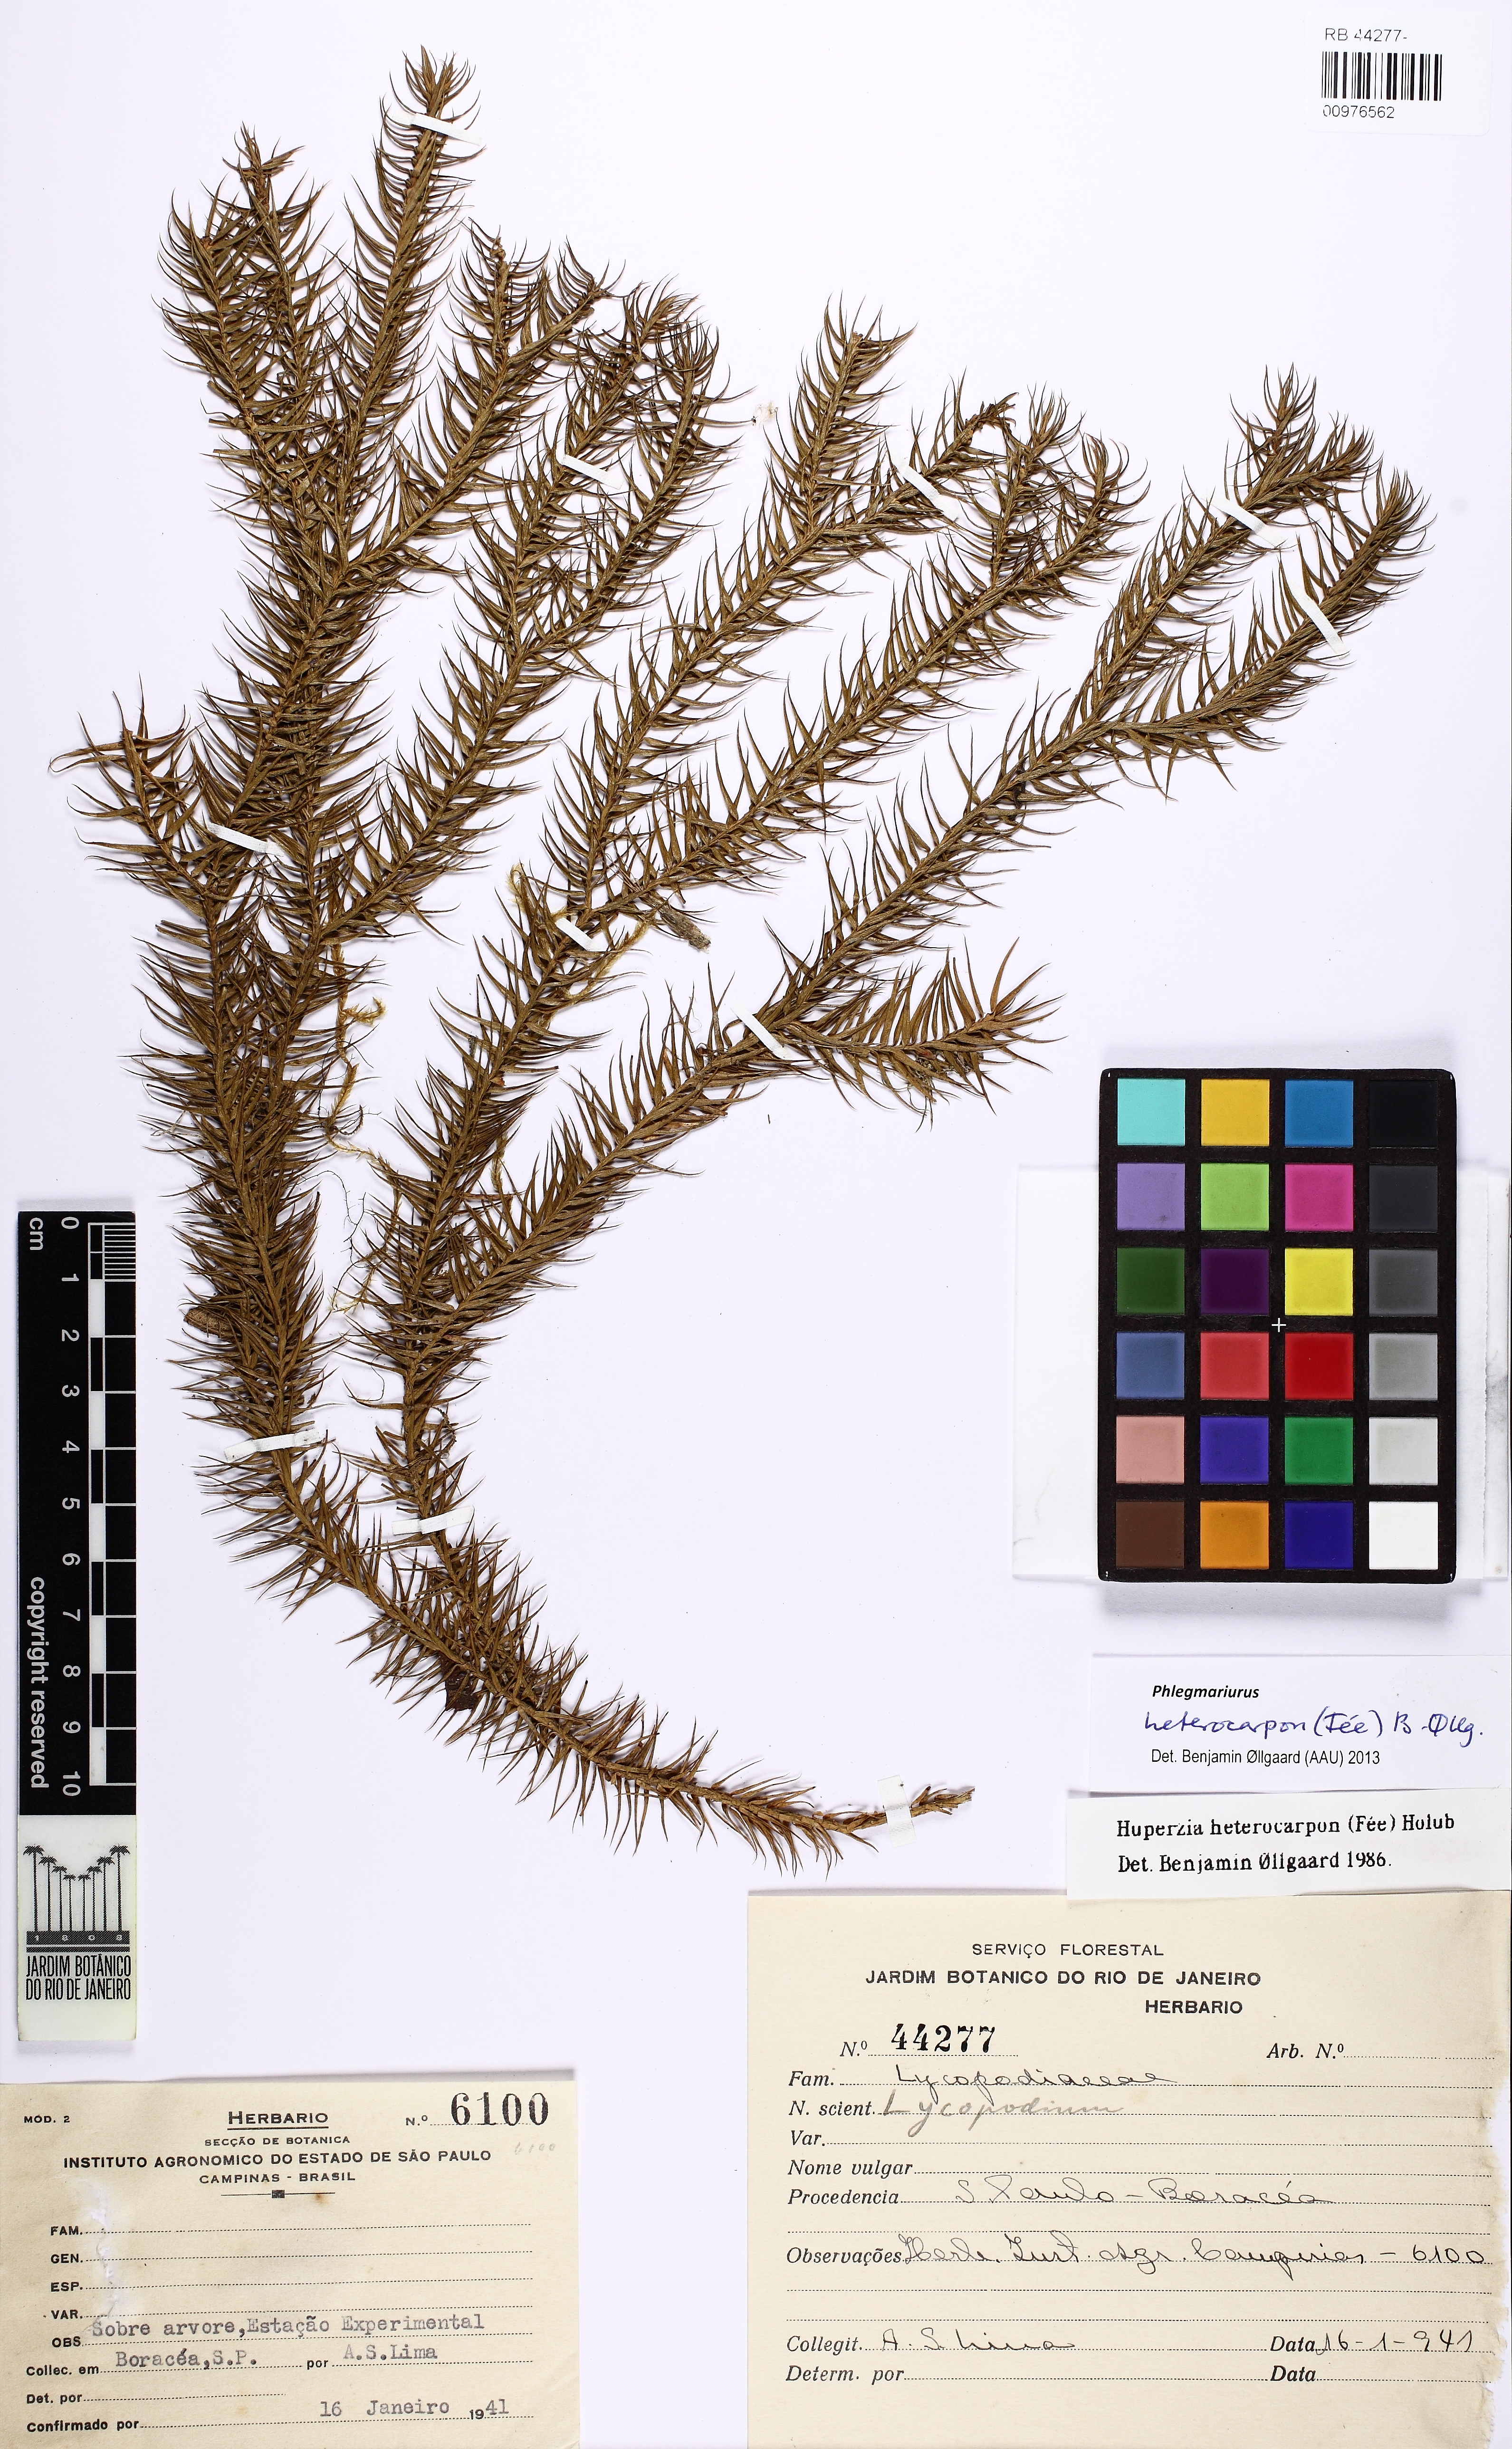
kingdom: Plantae
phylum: Tracheophyta
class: Lycopodiopsida
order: Lycopodiales
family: Lycopodiaceae
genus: Phlegmariurus
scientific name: Phlegmariurus heterocarpos
